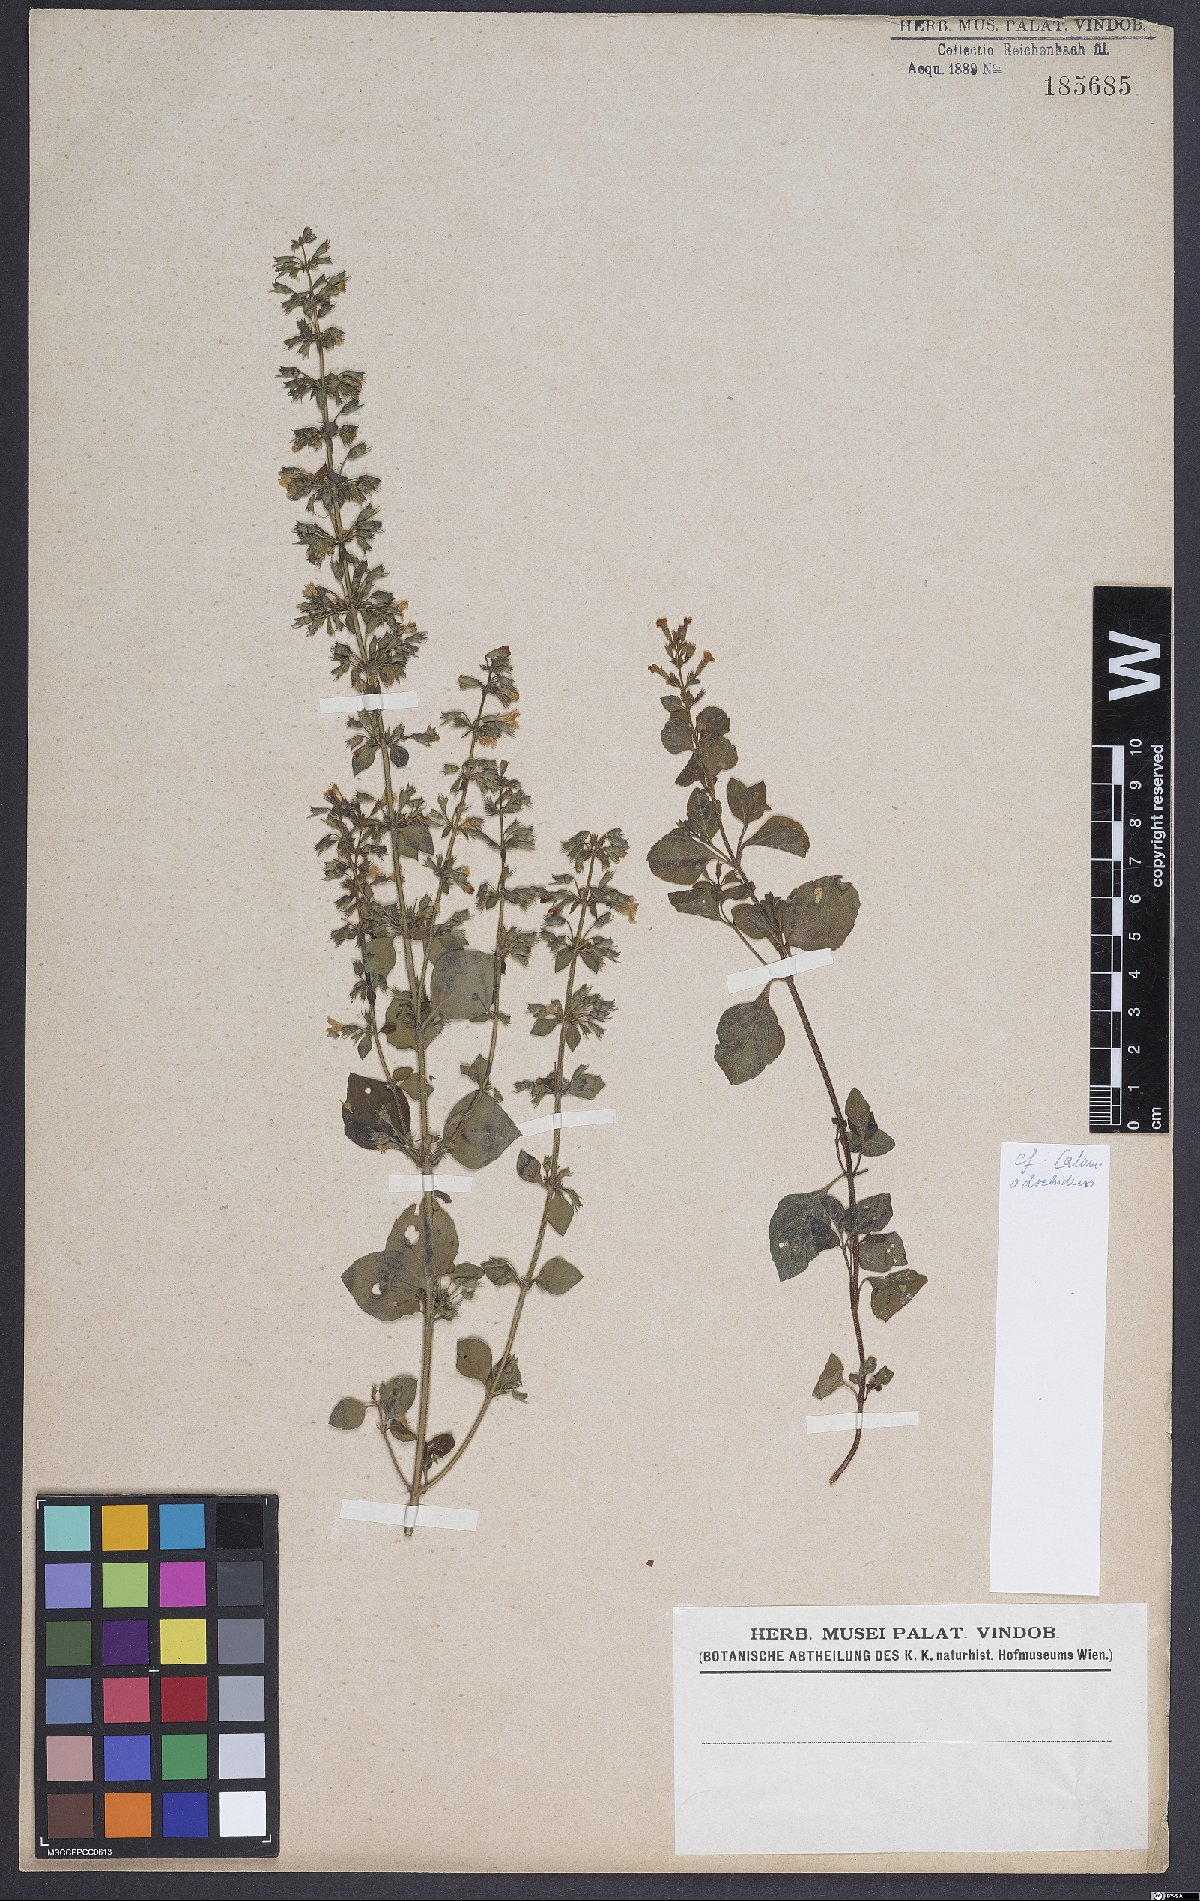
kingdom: Plantae
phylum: Tracheophyta
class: Magnoliopsida
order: Lamiales
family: Lamiaceae
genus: Clinopodium
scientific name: Clinopodium menthifolium
